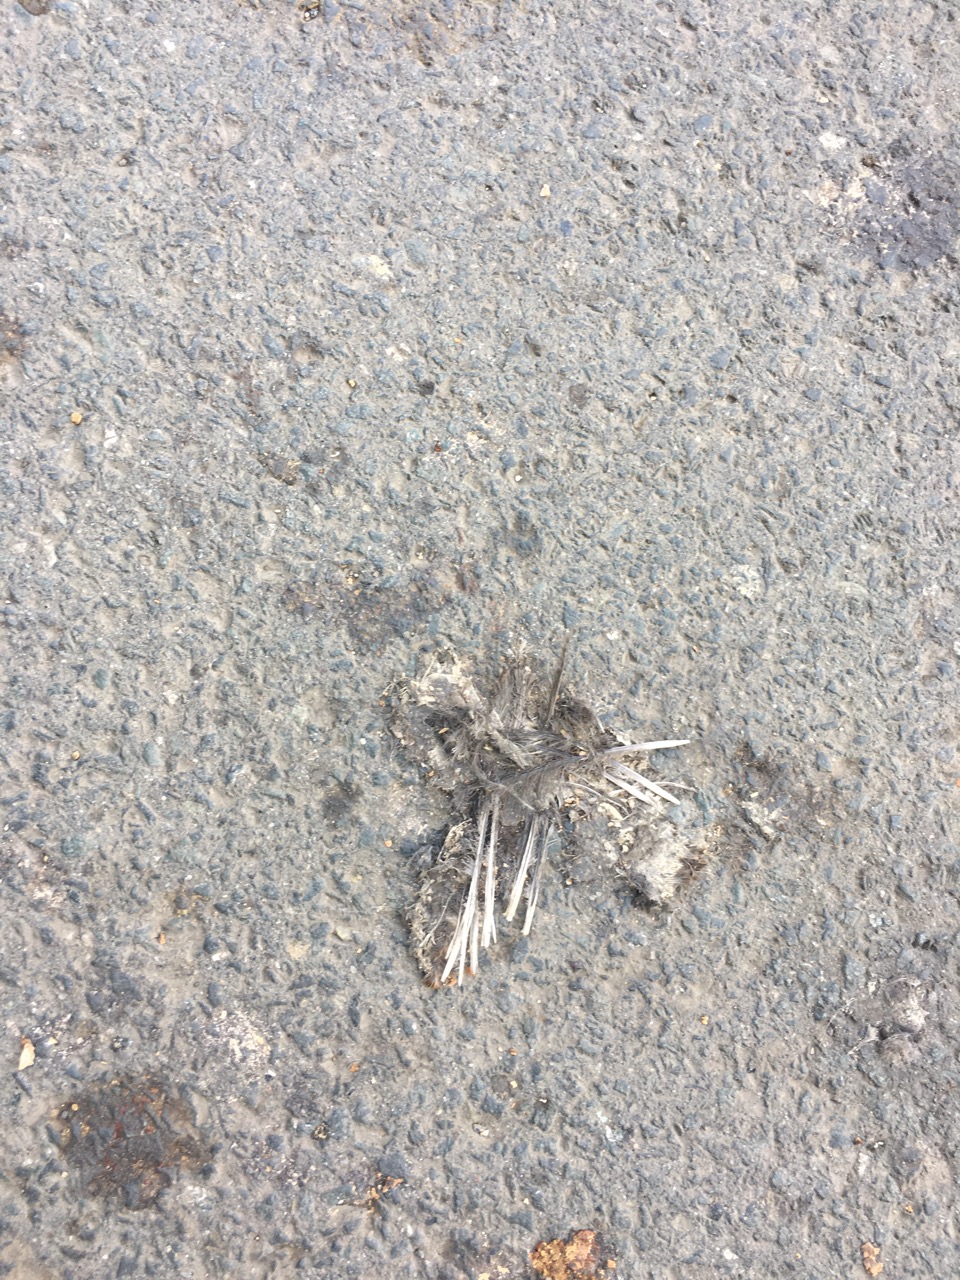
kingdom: Animalia
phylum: Chordata
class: Aves
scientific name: Aves
